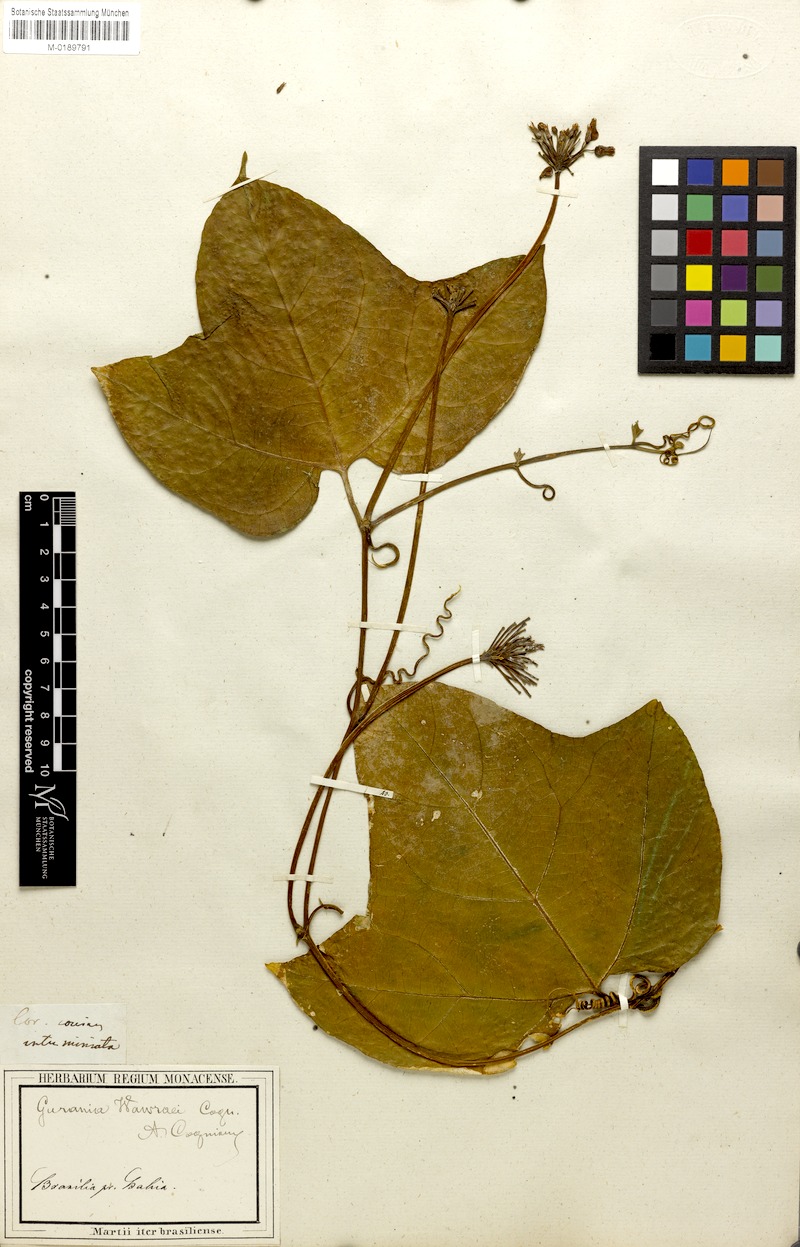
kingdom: Plantae
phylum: Tracheophyta
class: Magnoliopsida
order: Cucurbitales
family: Cucurbitaceae
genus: Gurania
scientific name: Gurania wawrae
